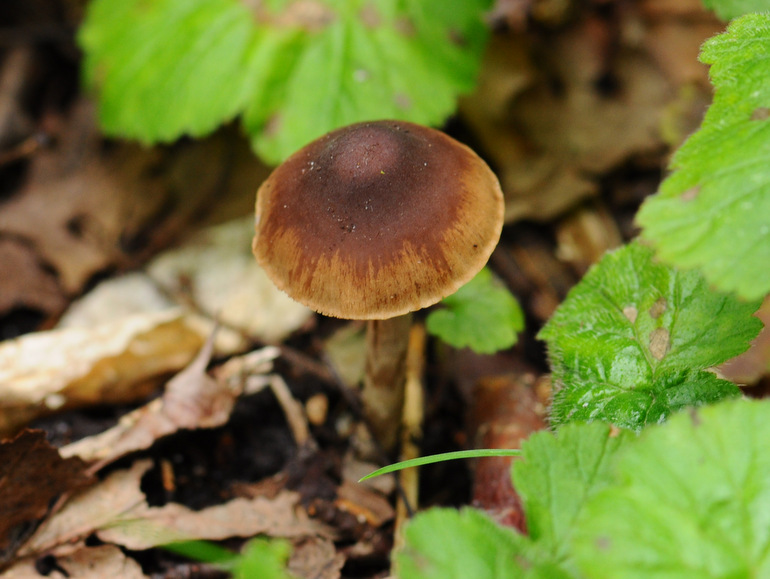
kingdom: Fungi
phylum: Basidiomycota
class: Agaricomycetes
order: Agaricales
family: Hymenogastraceae
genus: Naucoria
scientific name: Naucoria bohemica
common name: birke-knaphat
